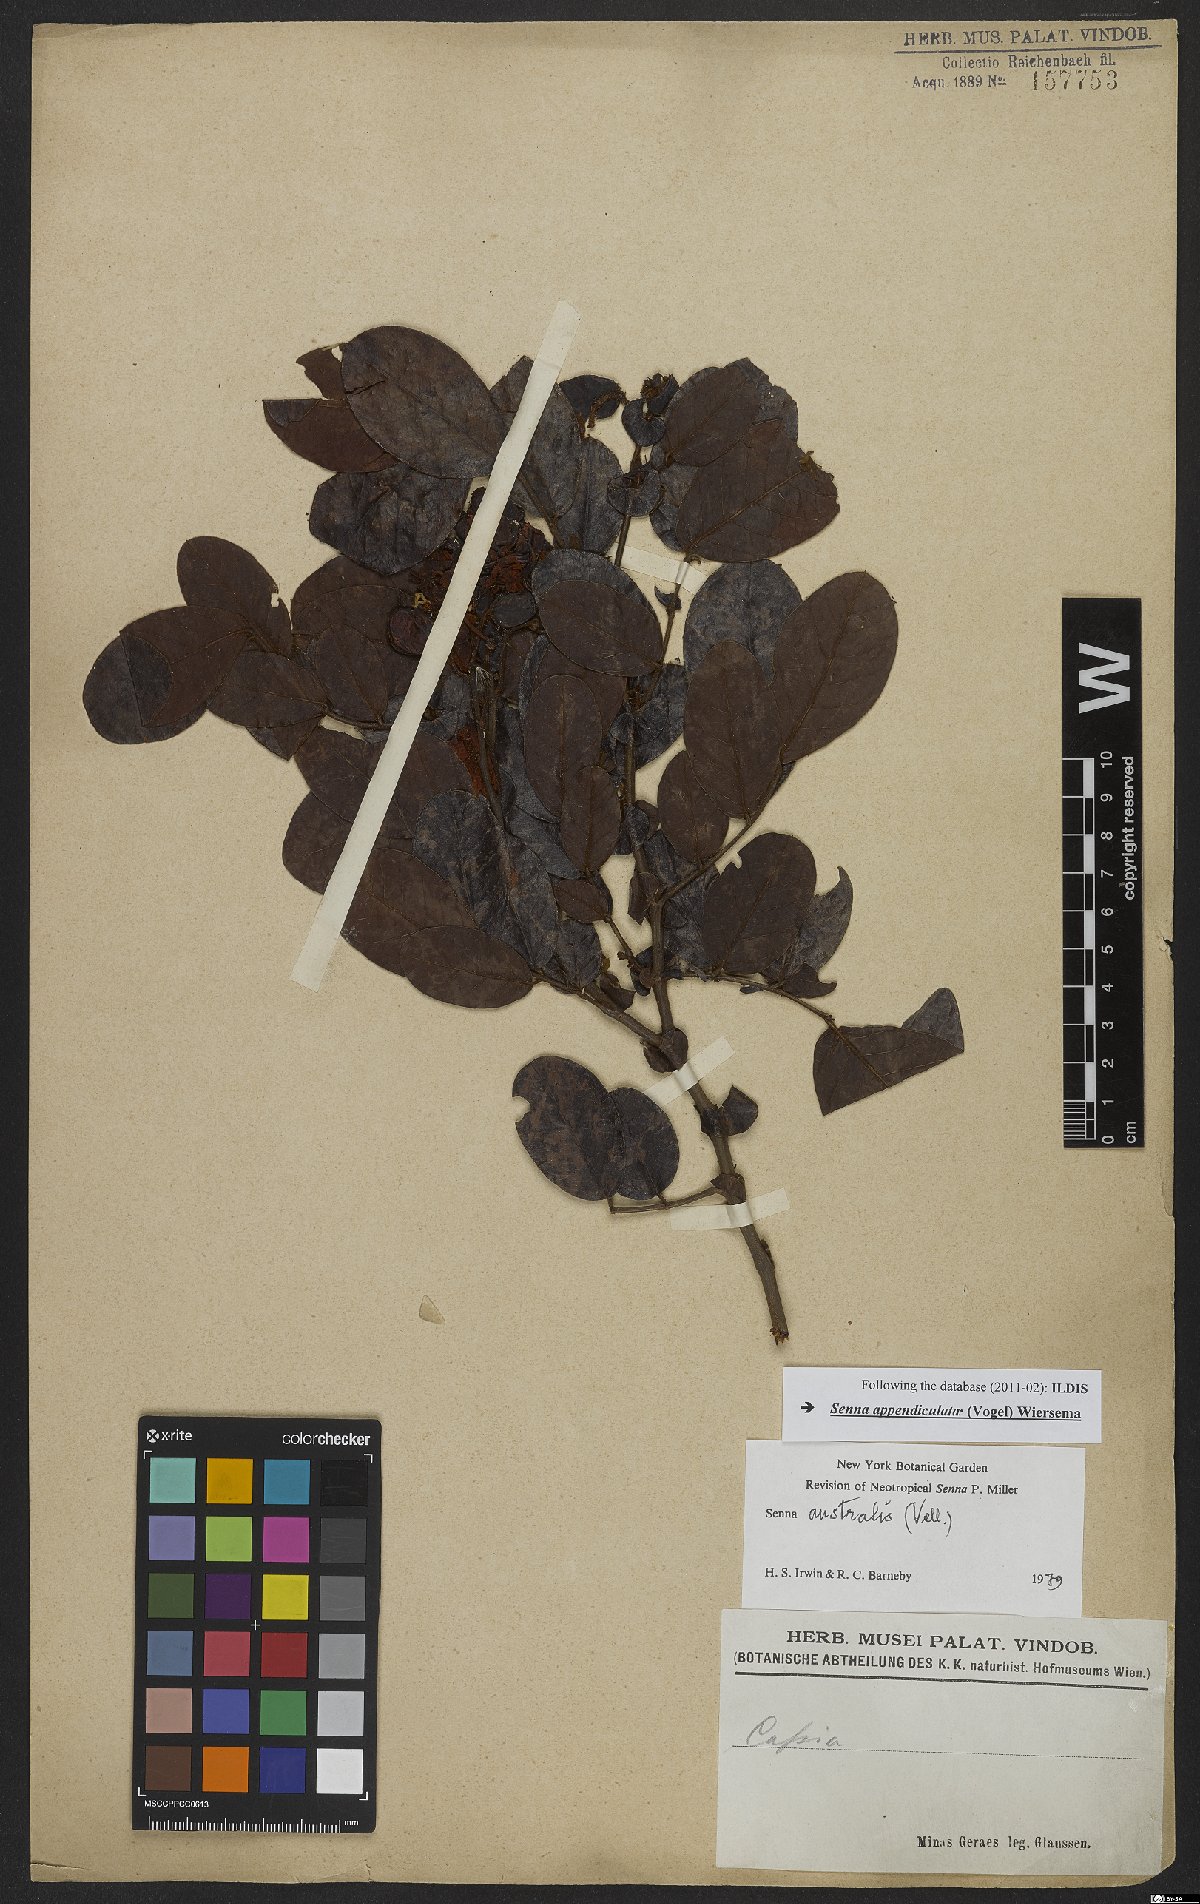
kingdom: Plantae
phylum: Tracheophyta
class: Magnoliopsida
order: Fabales
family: Fabaceae
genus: Senna
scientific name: Senna appendiculata
